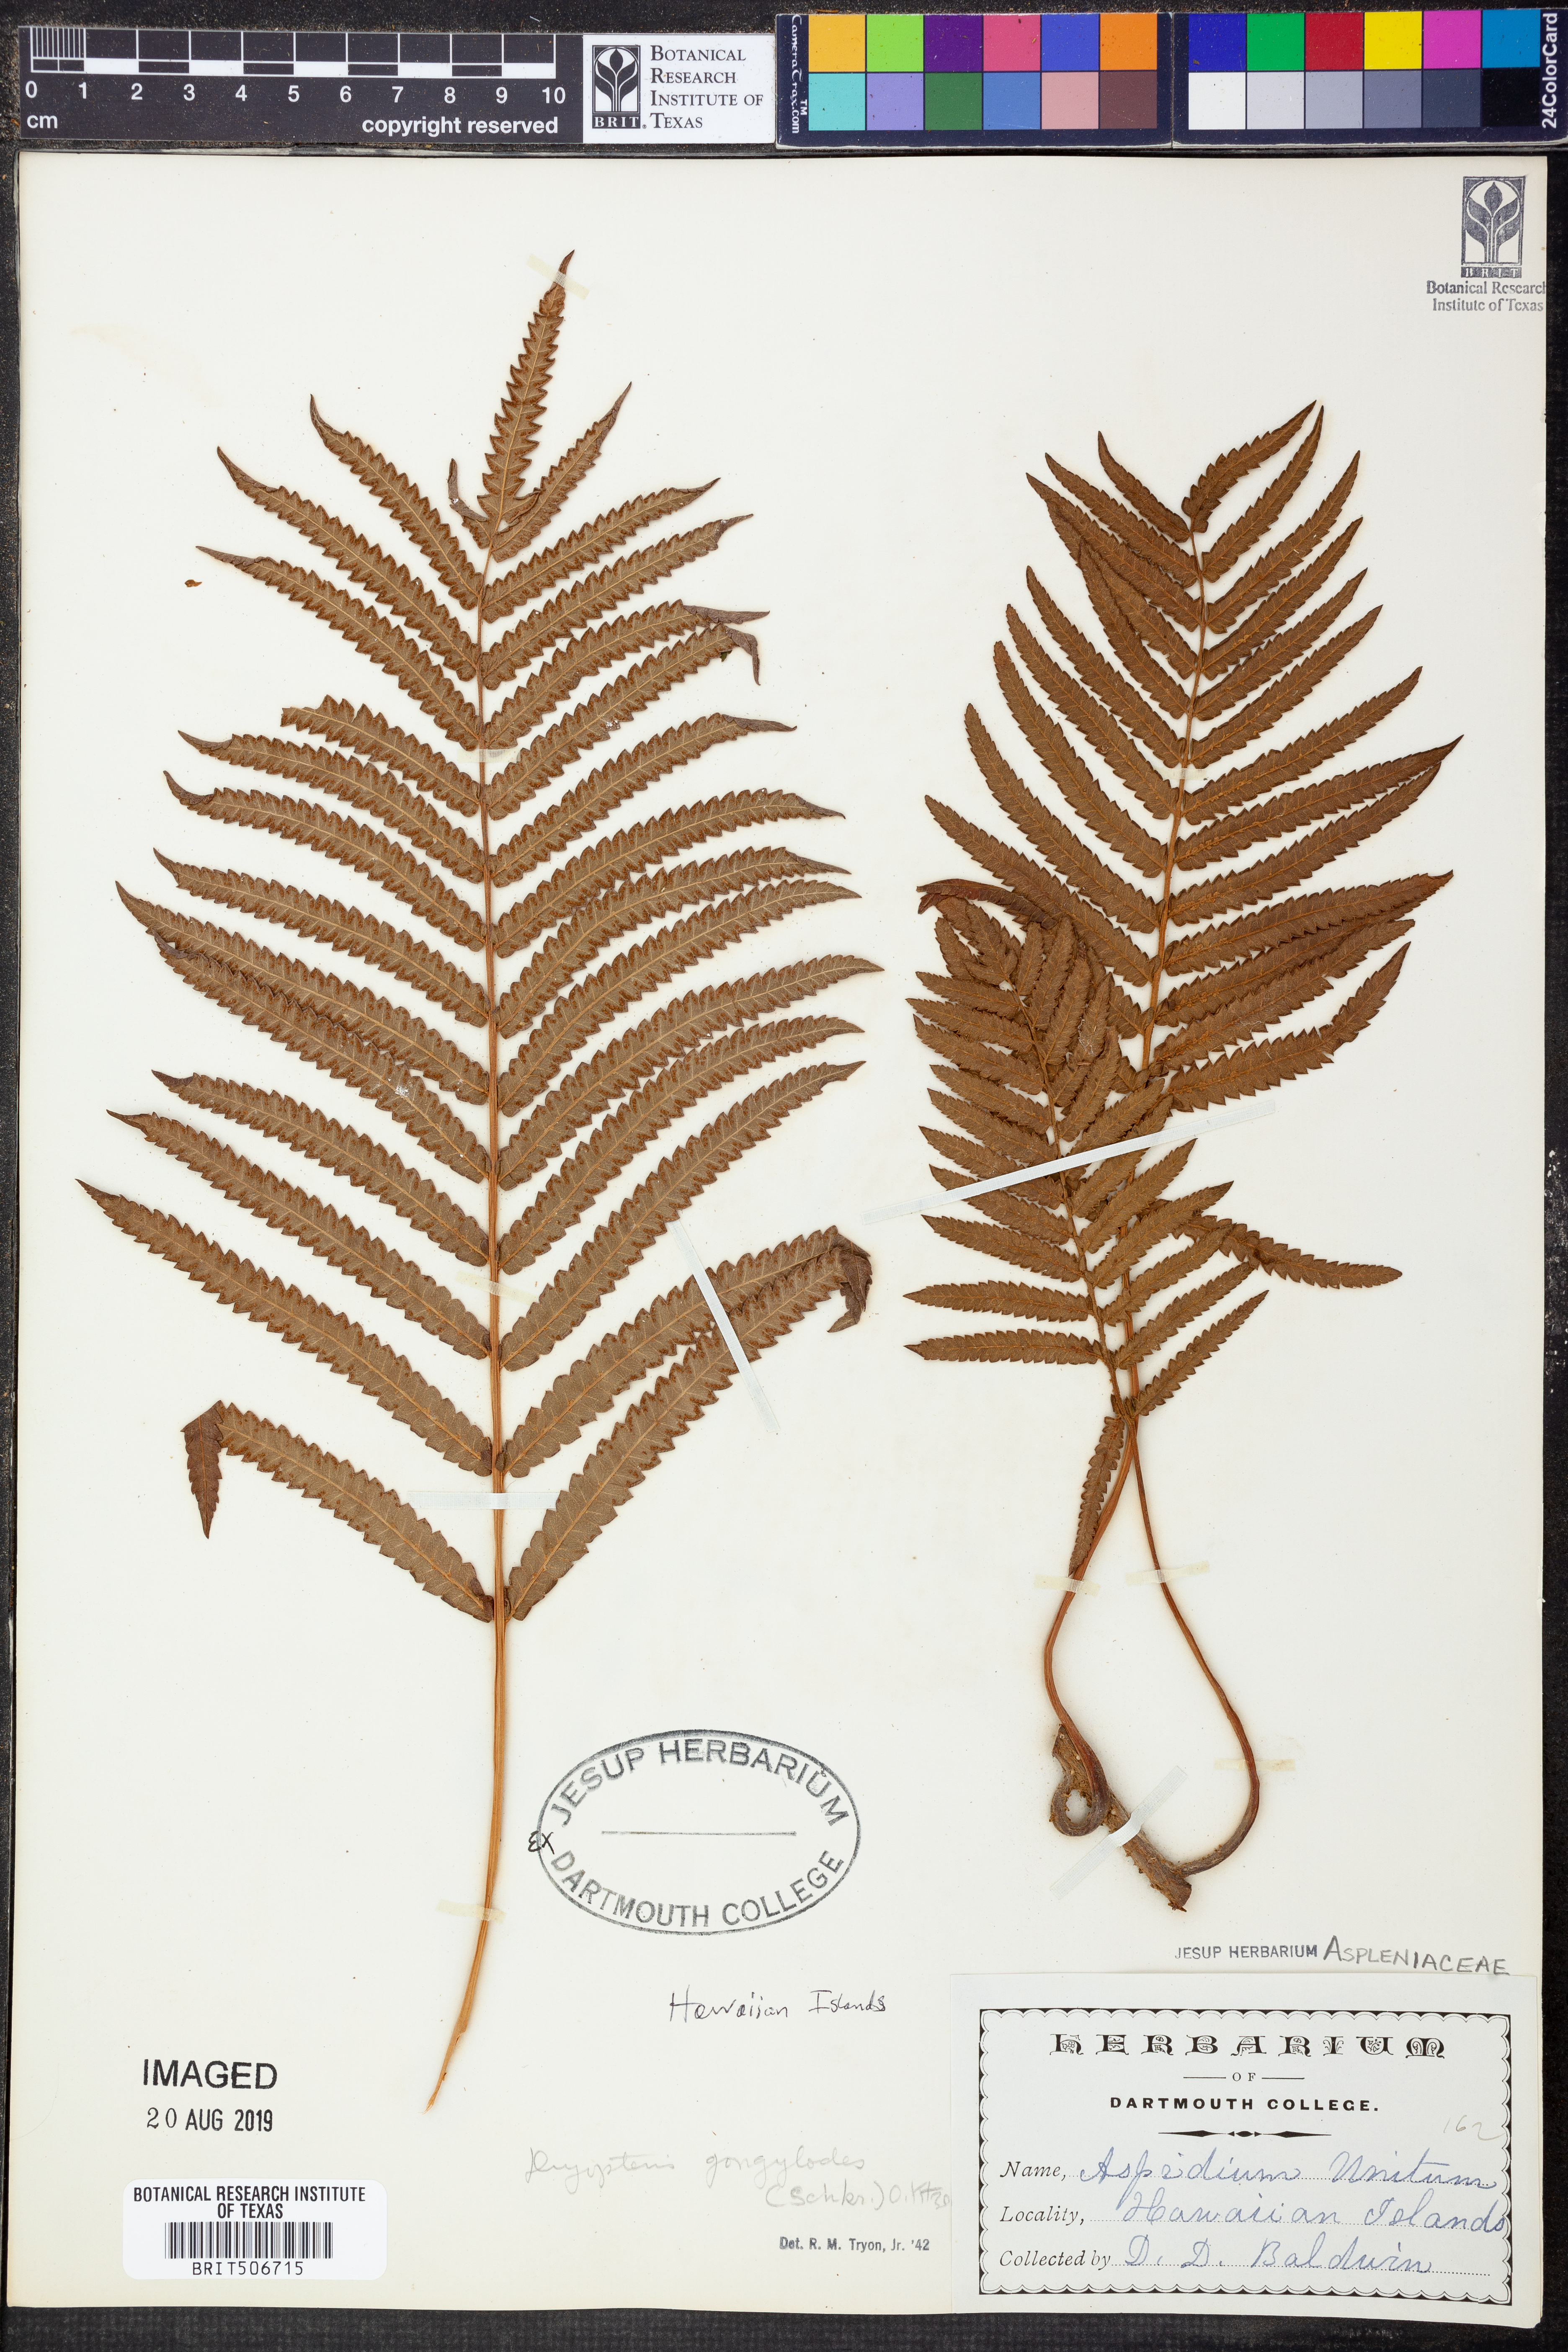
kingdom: Plantae
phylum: Tracheophyta
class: Polypodiopsida
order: Polypodiales
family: Thelypteridaceae
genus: Cyclosorus
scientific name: Cyclosorus interruptus
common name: Neke fern
